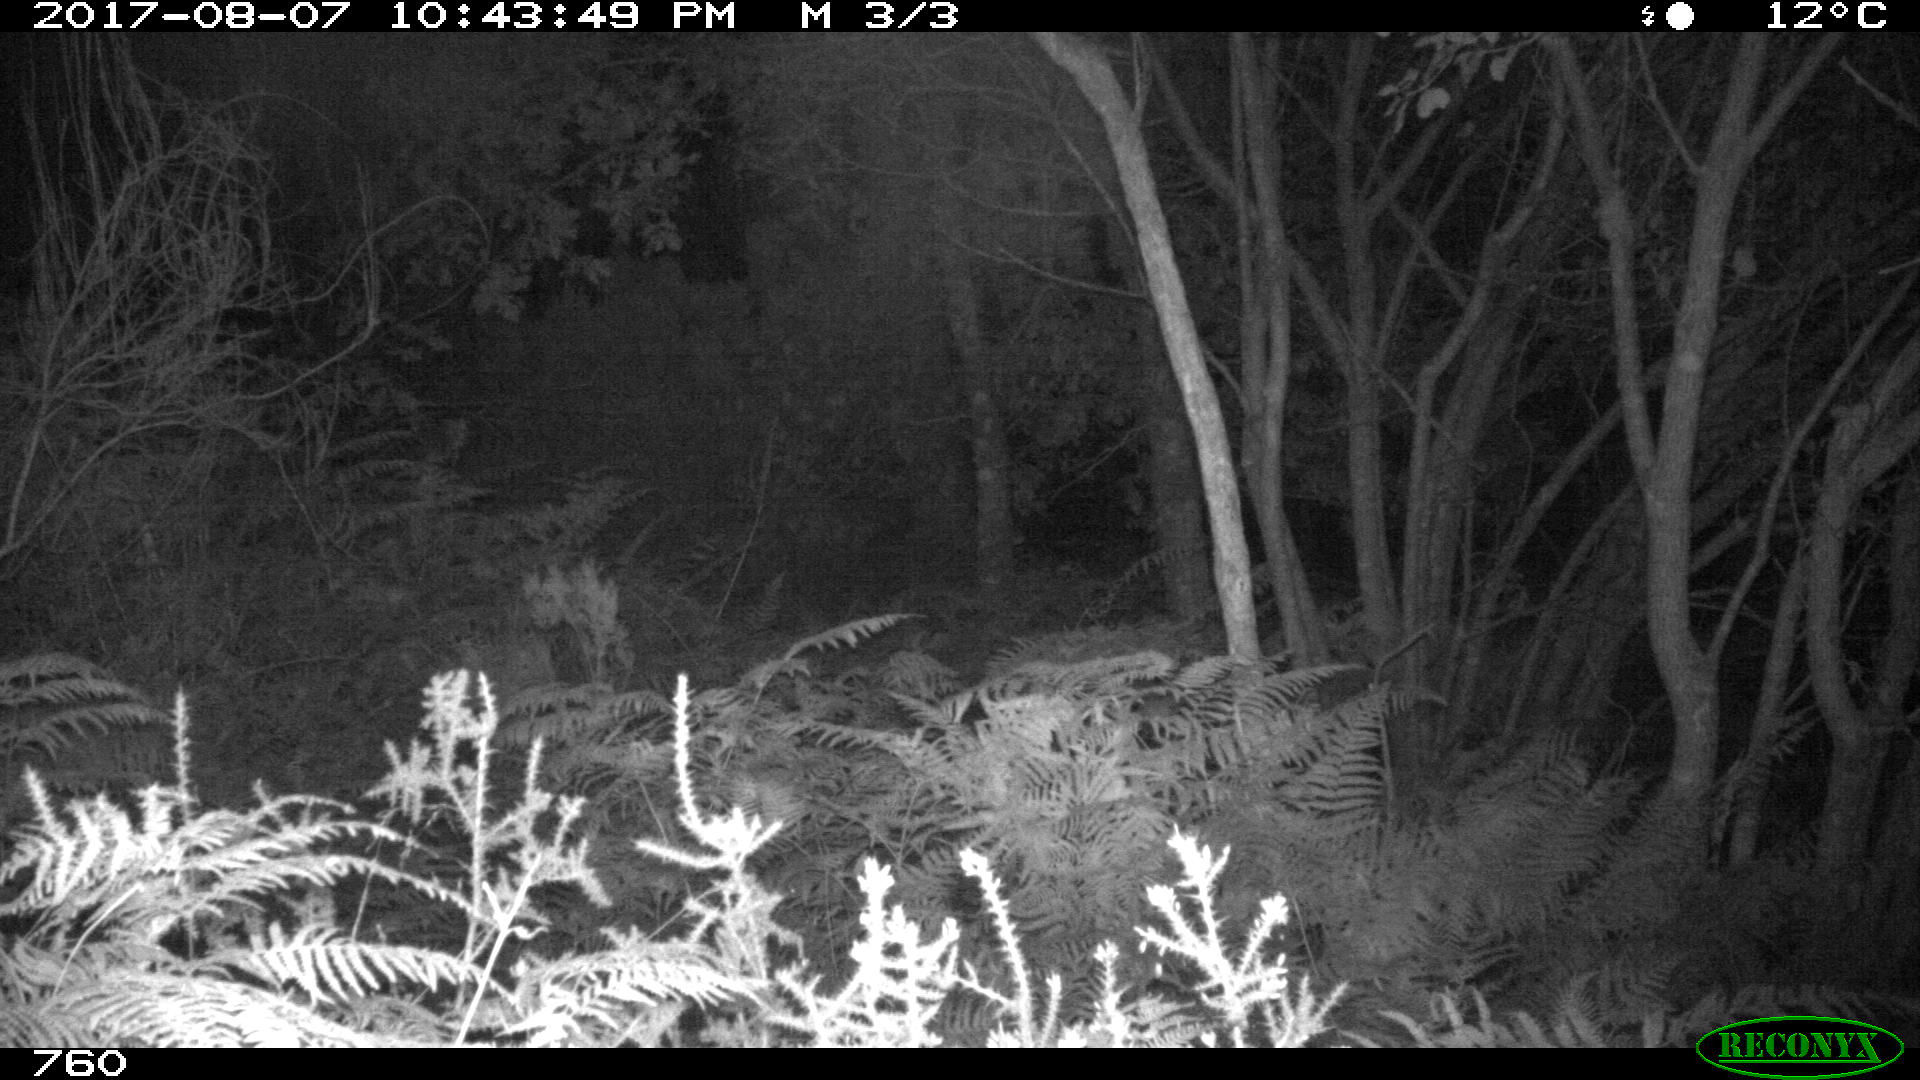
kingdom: Animalia
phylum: Chordata
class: Mammalia
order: Artiodactyla
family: Bovidae
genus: Bos
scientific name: Bos taurus
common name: Domesticated cattle
